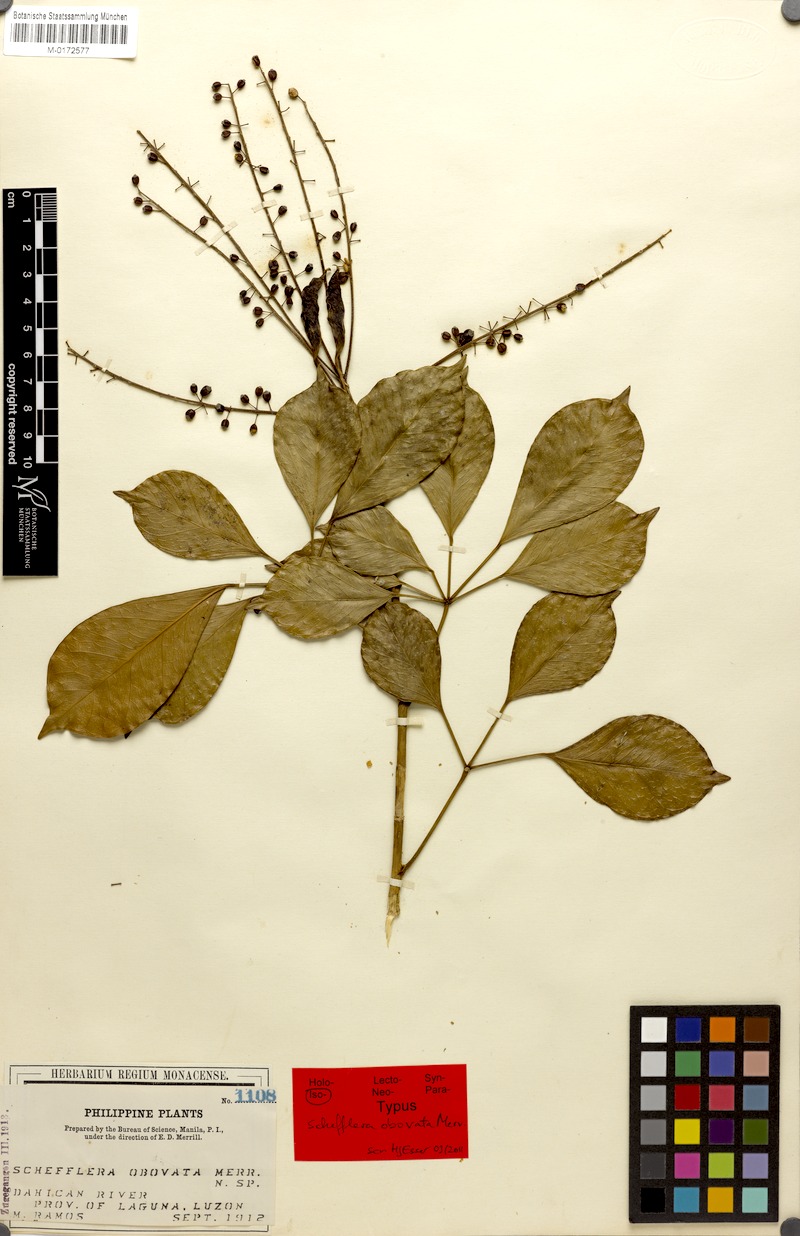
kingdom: Plantae
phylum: Tracheophyta
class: Magnoliopsida
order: Apiales
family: Araliaceae
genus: Heptapleurum
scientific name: Heptapleurum philippinense
